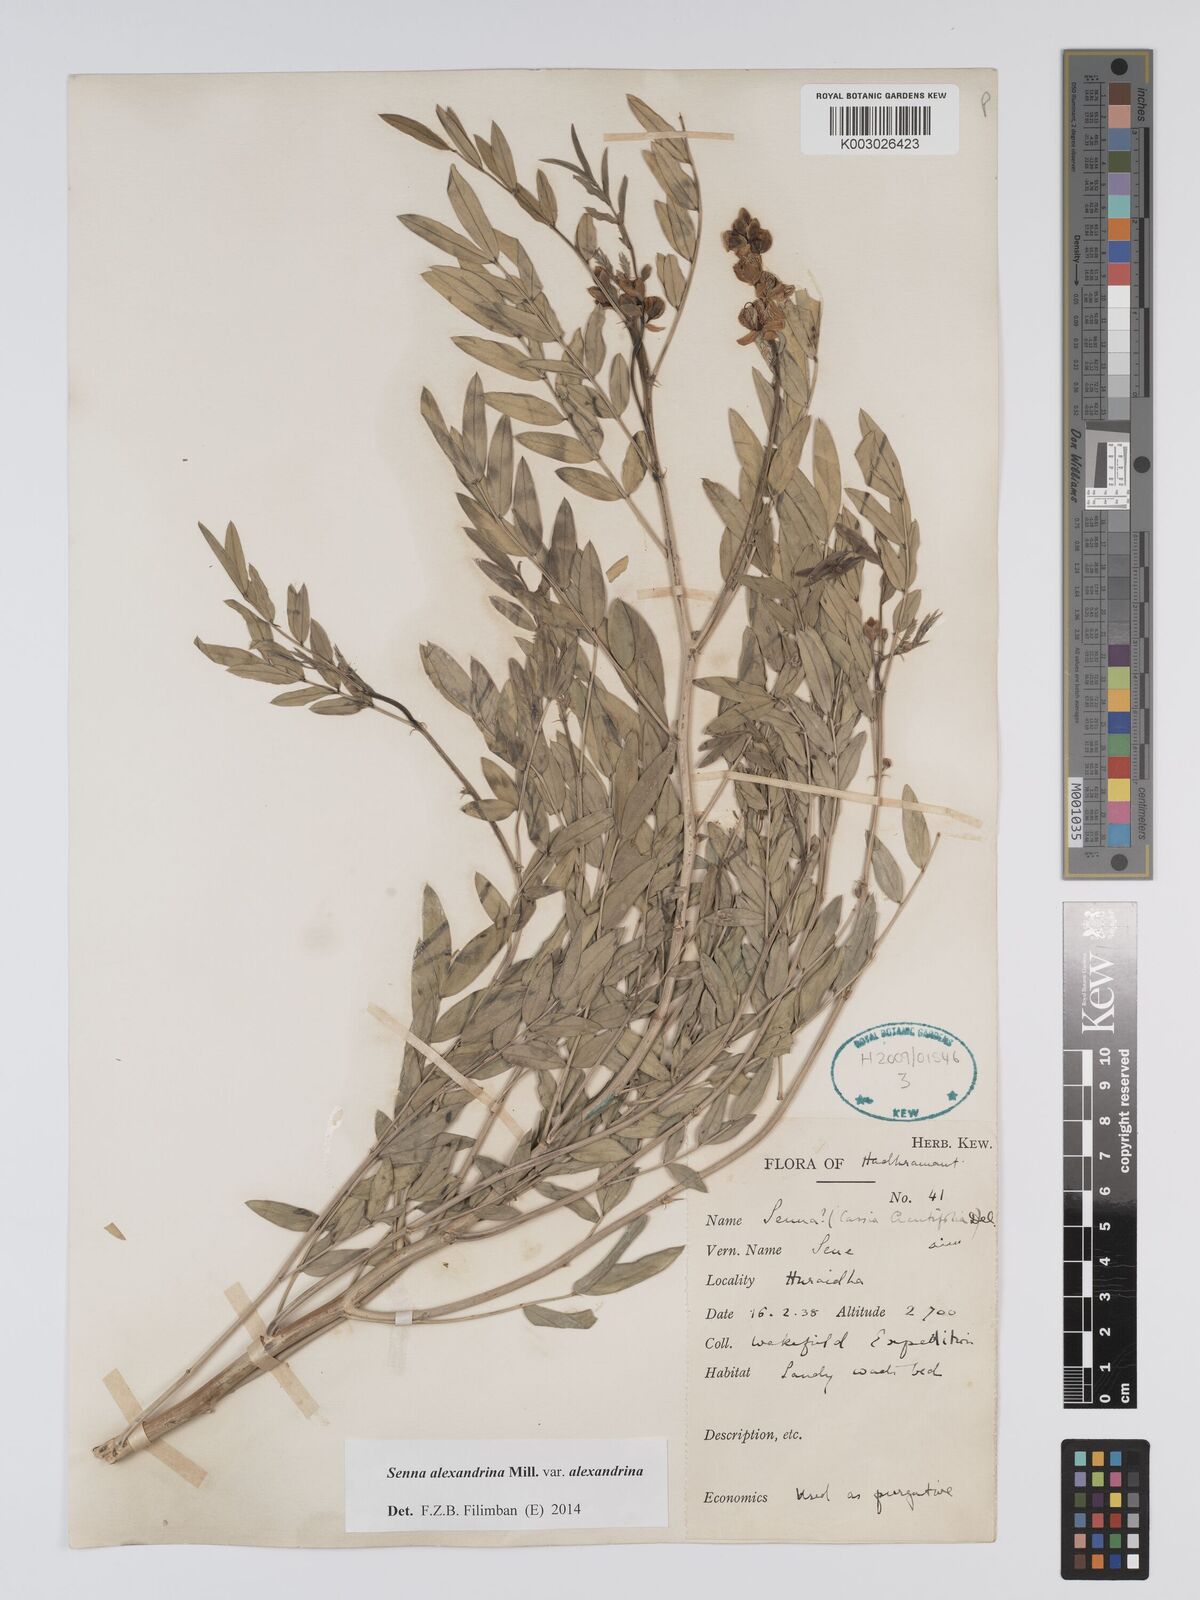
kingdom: Plantae
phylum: Tracheophyta
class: Magnoliopsida
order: Fabales
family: Fabaceae
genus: Senna
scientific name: Senna alexandrina
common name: True senna
